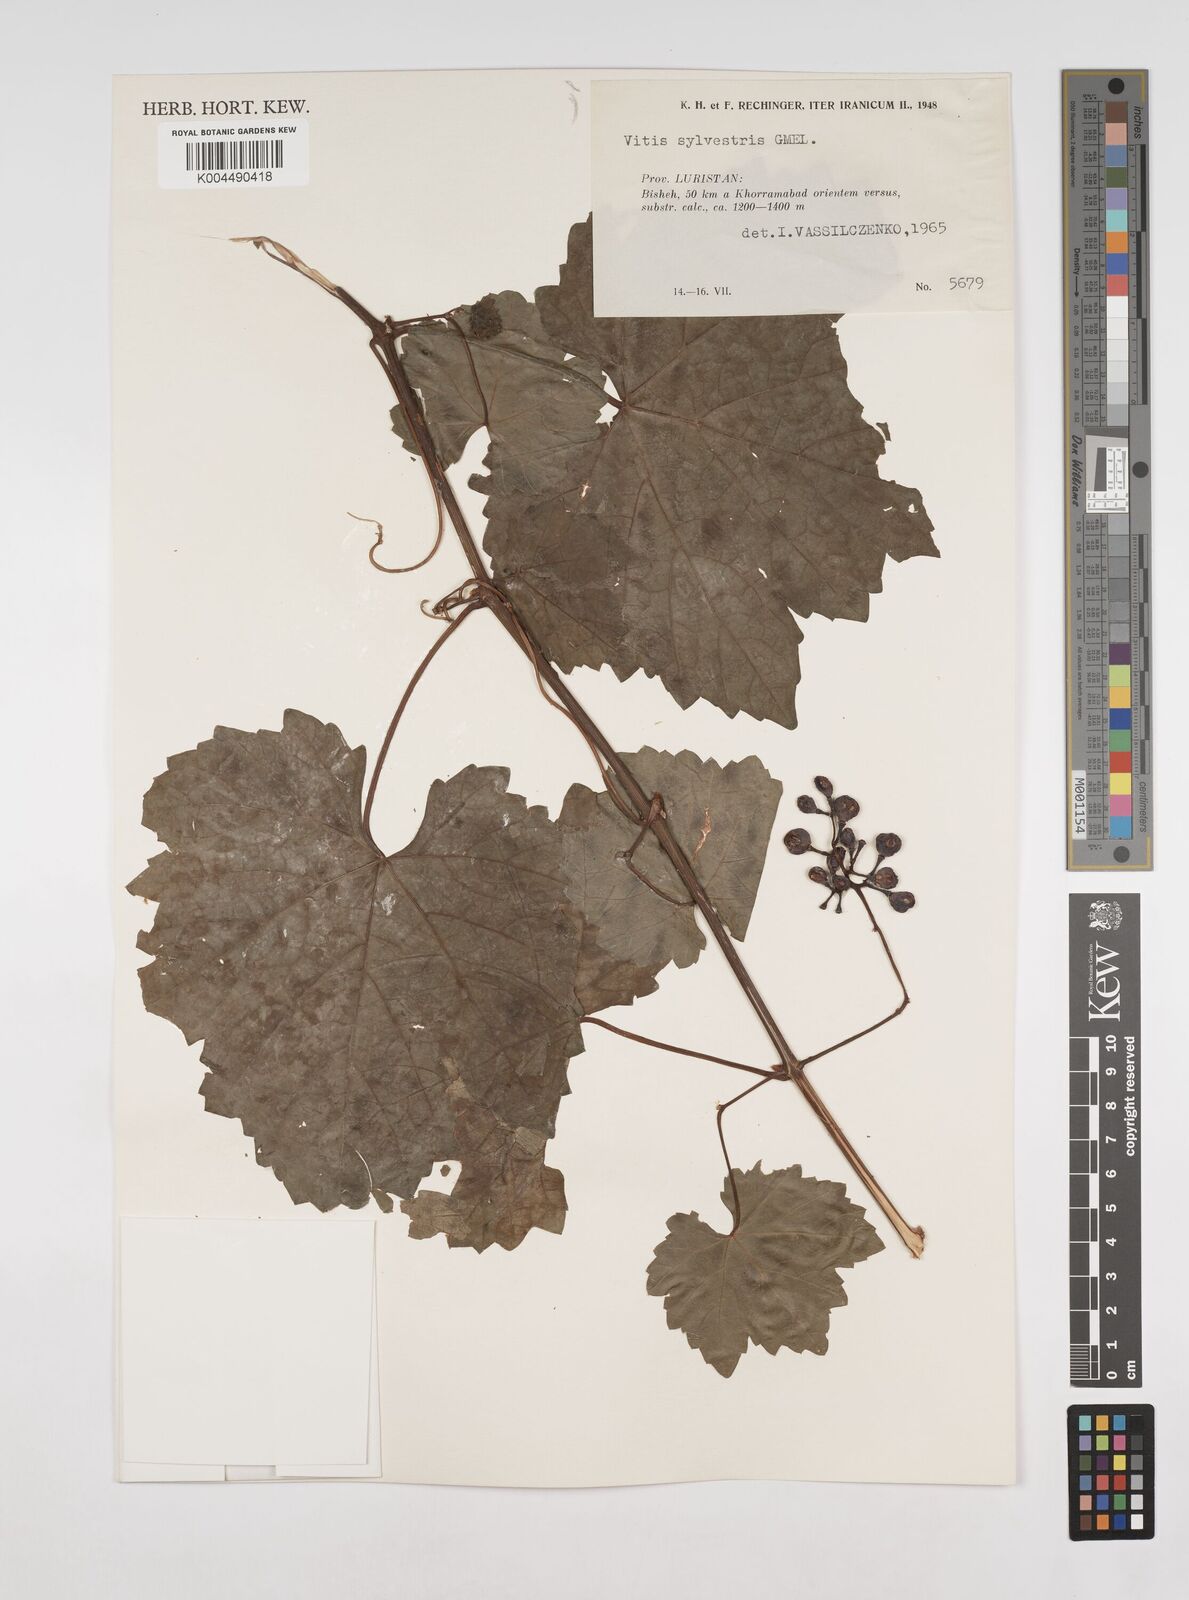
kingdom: Plantae
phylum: Tracheophyta
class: Magnoliopsida
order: Vitales
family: Vitaceae
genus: Vitis
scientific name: Vitis
